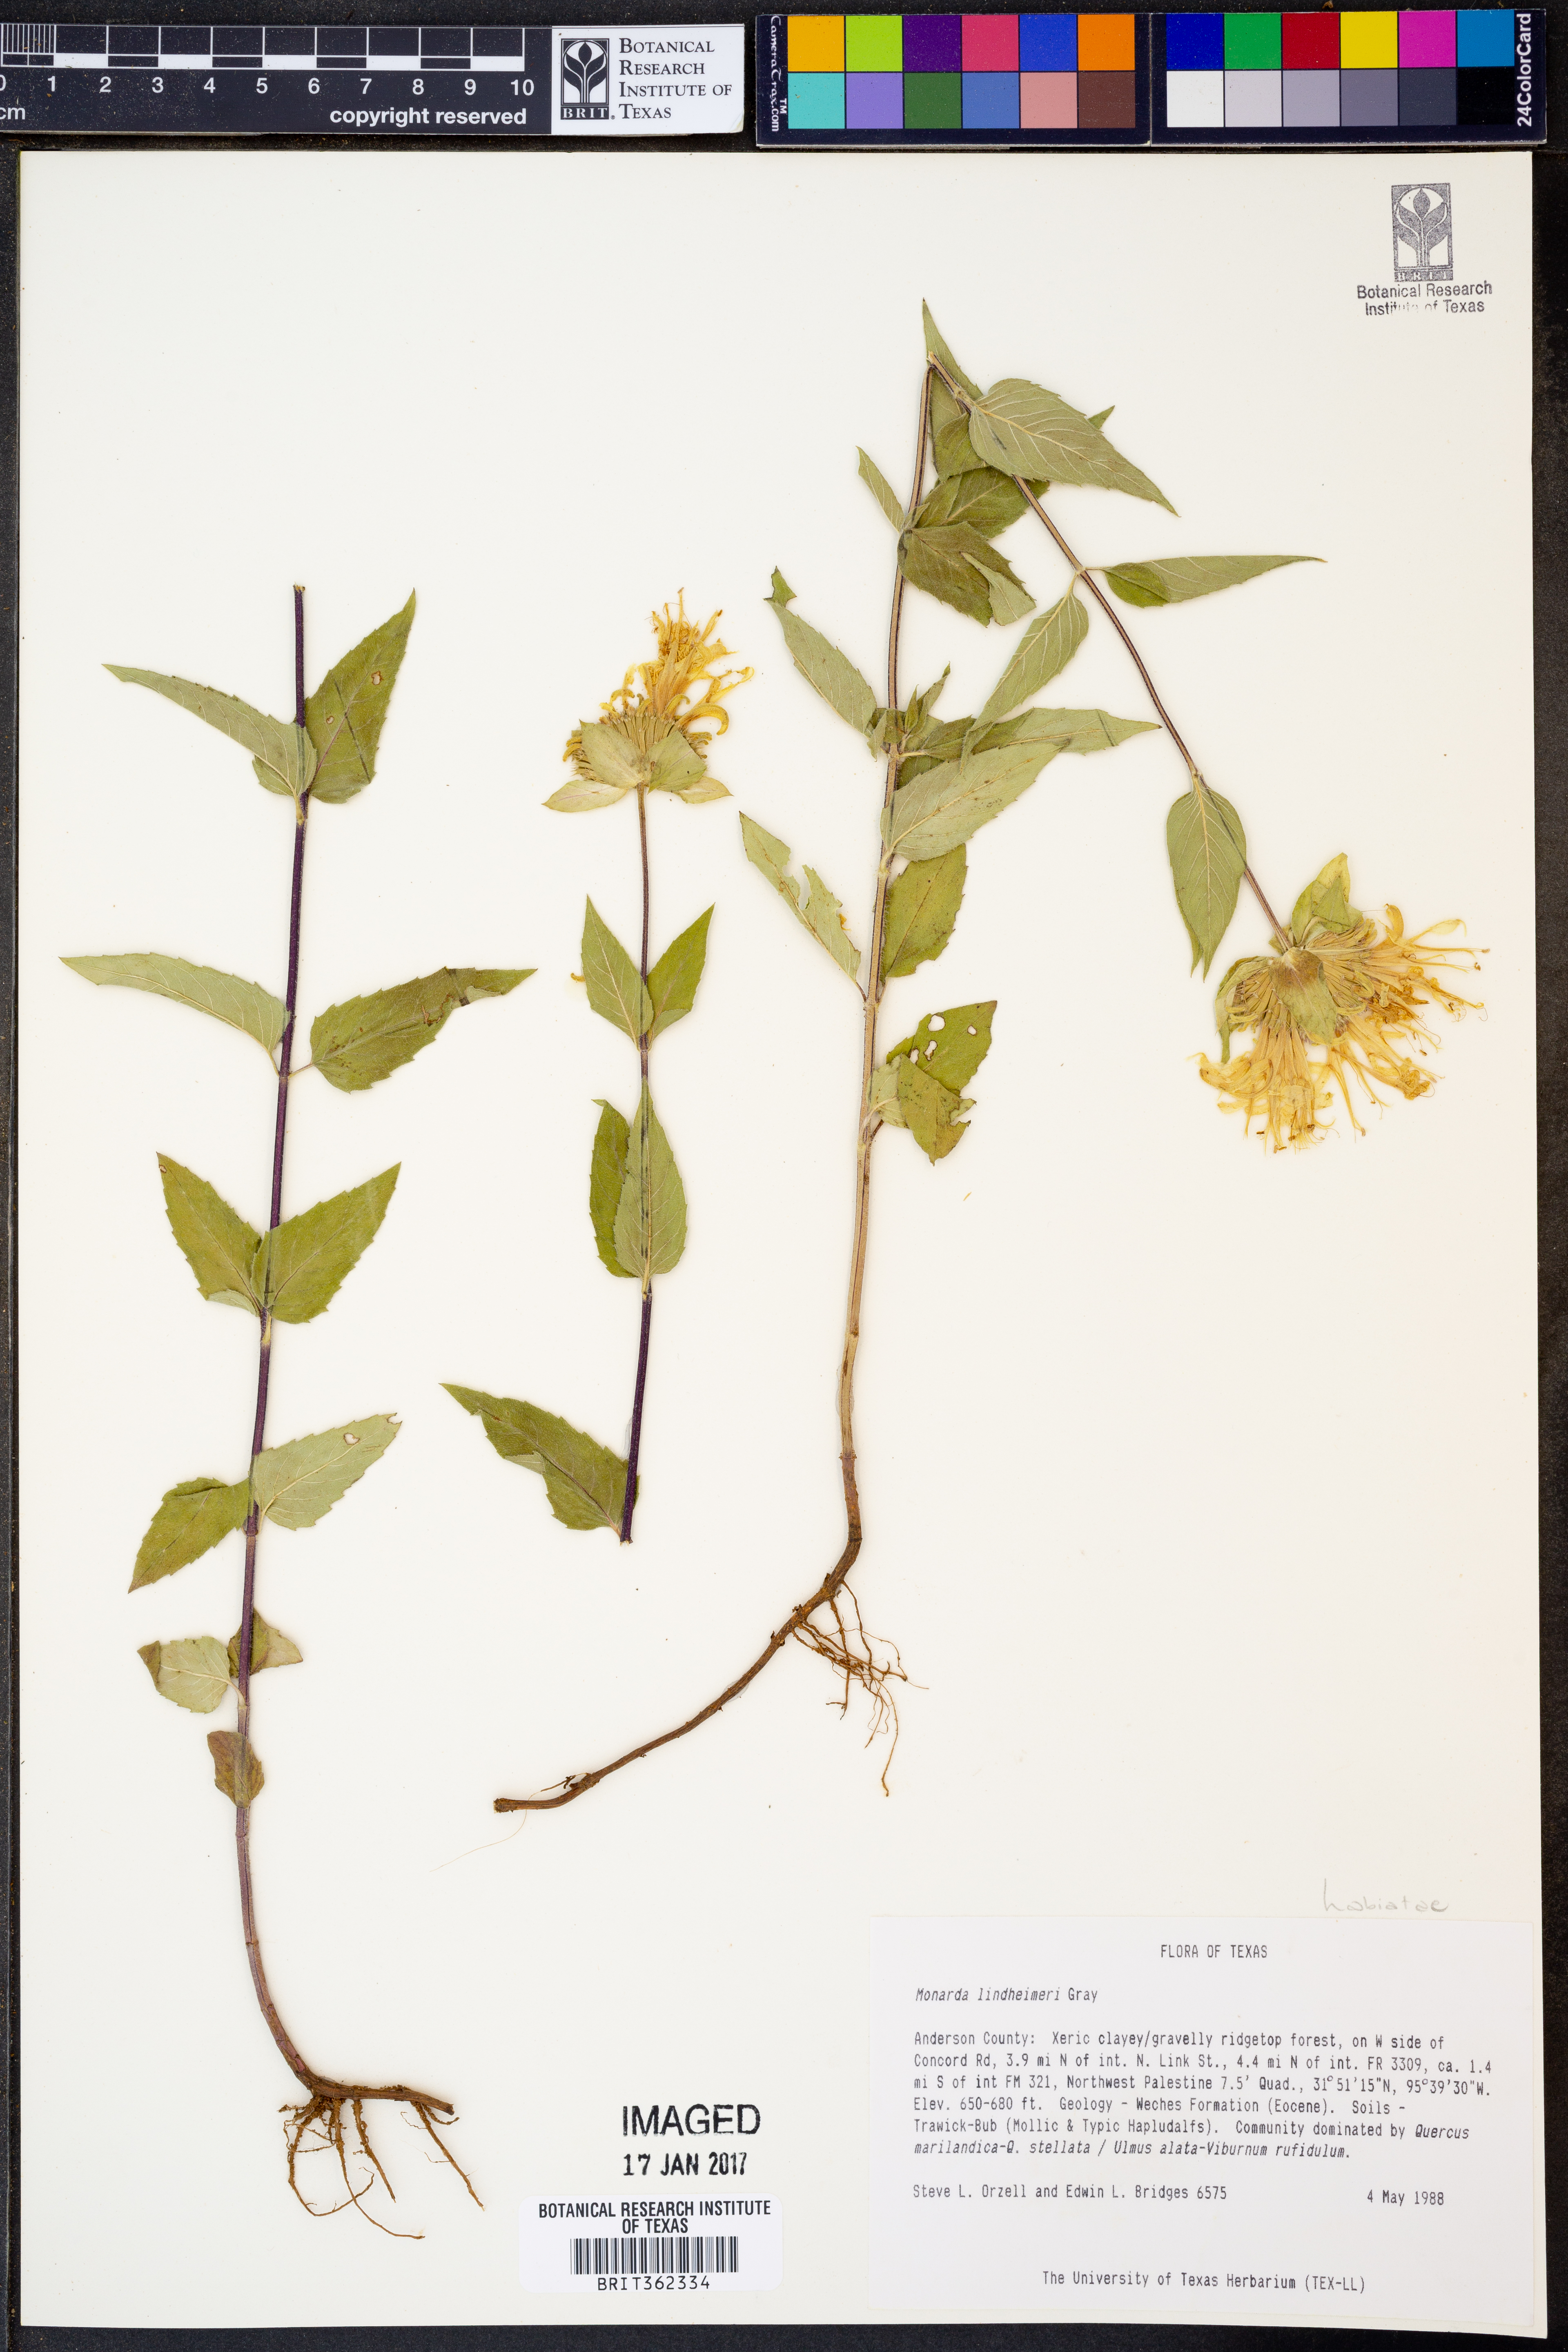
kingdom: Plantae
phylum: Tracheophyta
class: Magnoliopsida
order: Lamiales
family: Lamiaceae
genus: Monarda
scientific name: Monarda lindheimeri
